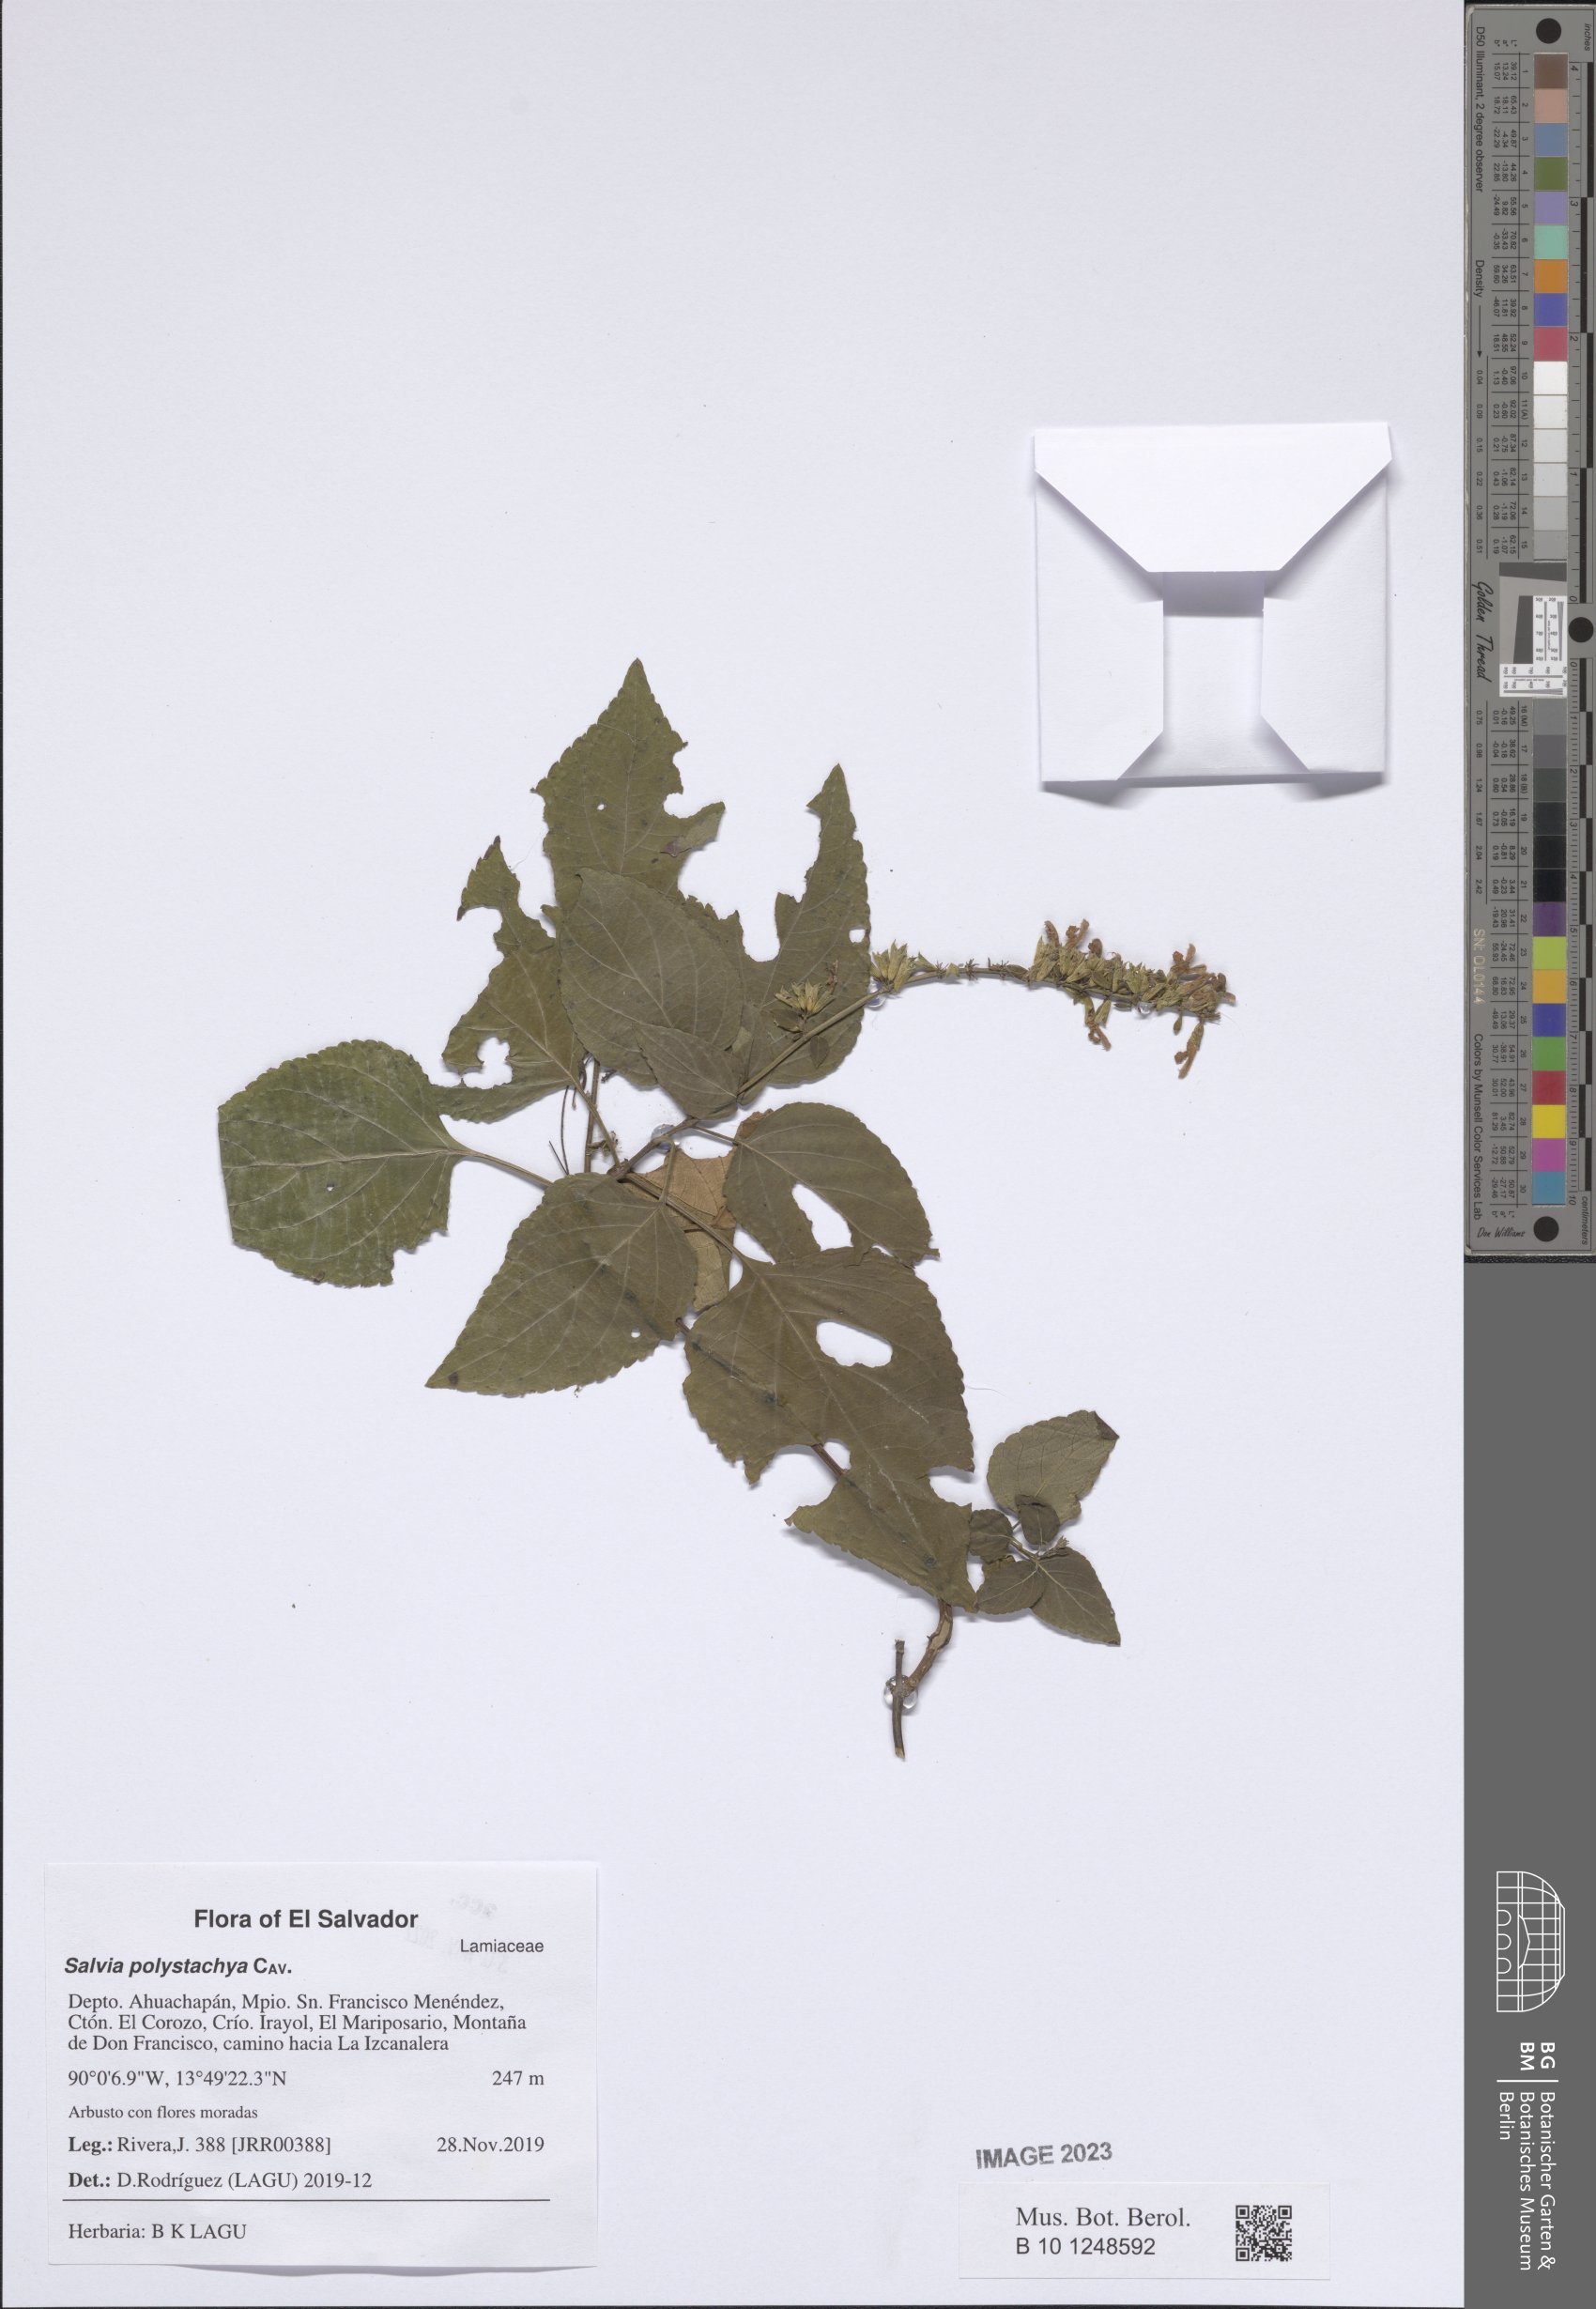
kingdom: Plantae
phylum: Tracheophyta
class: Magnoliopsida
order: Lamiales
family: Lamiaceae
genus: Salvia
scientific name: Salvia polystachia
